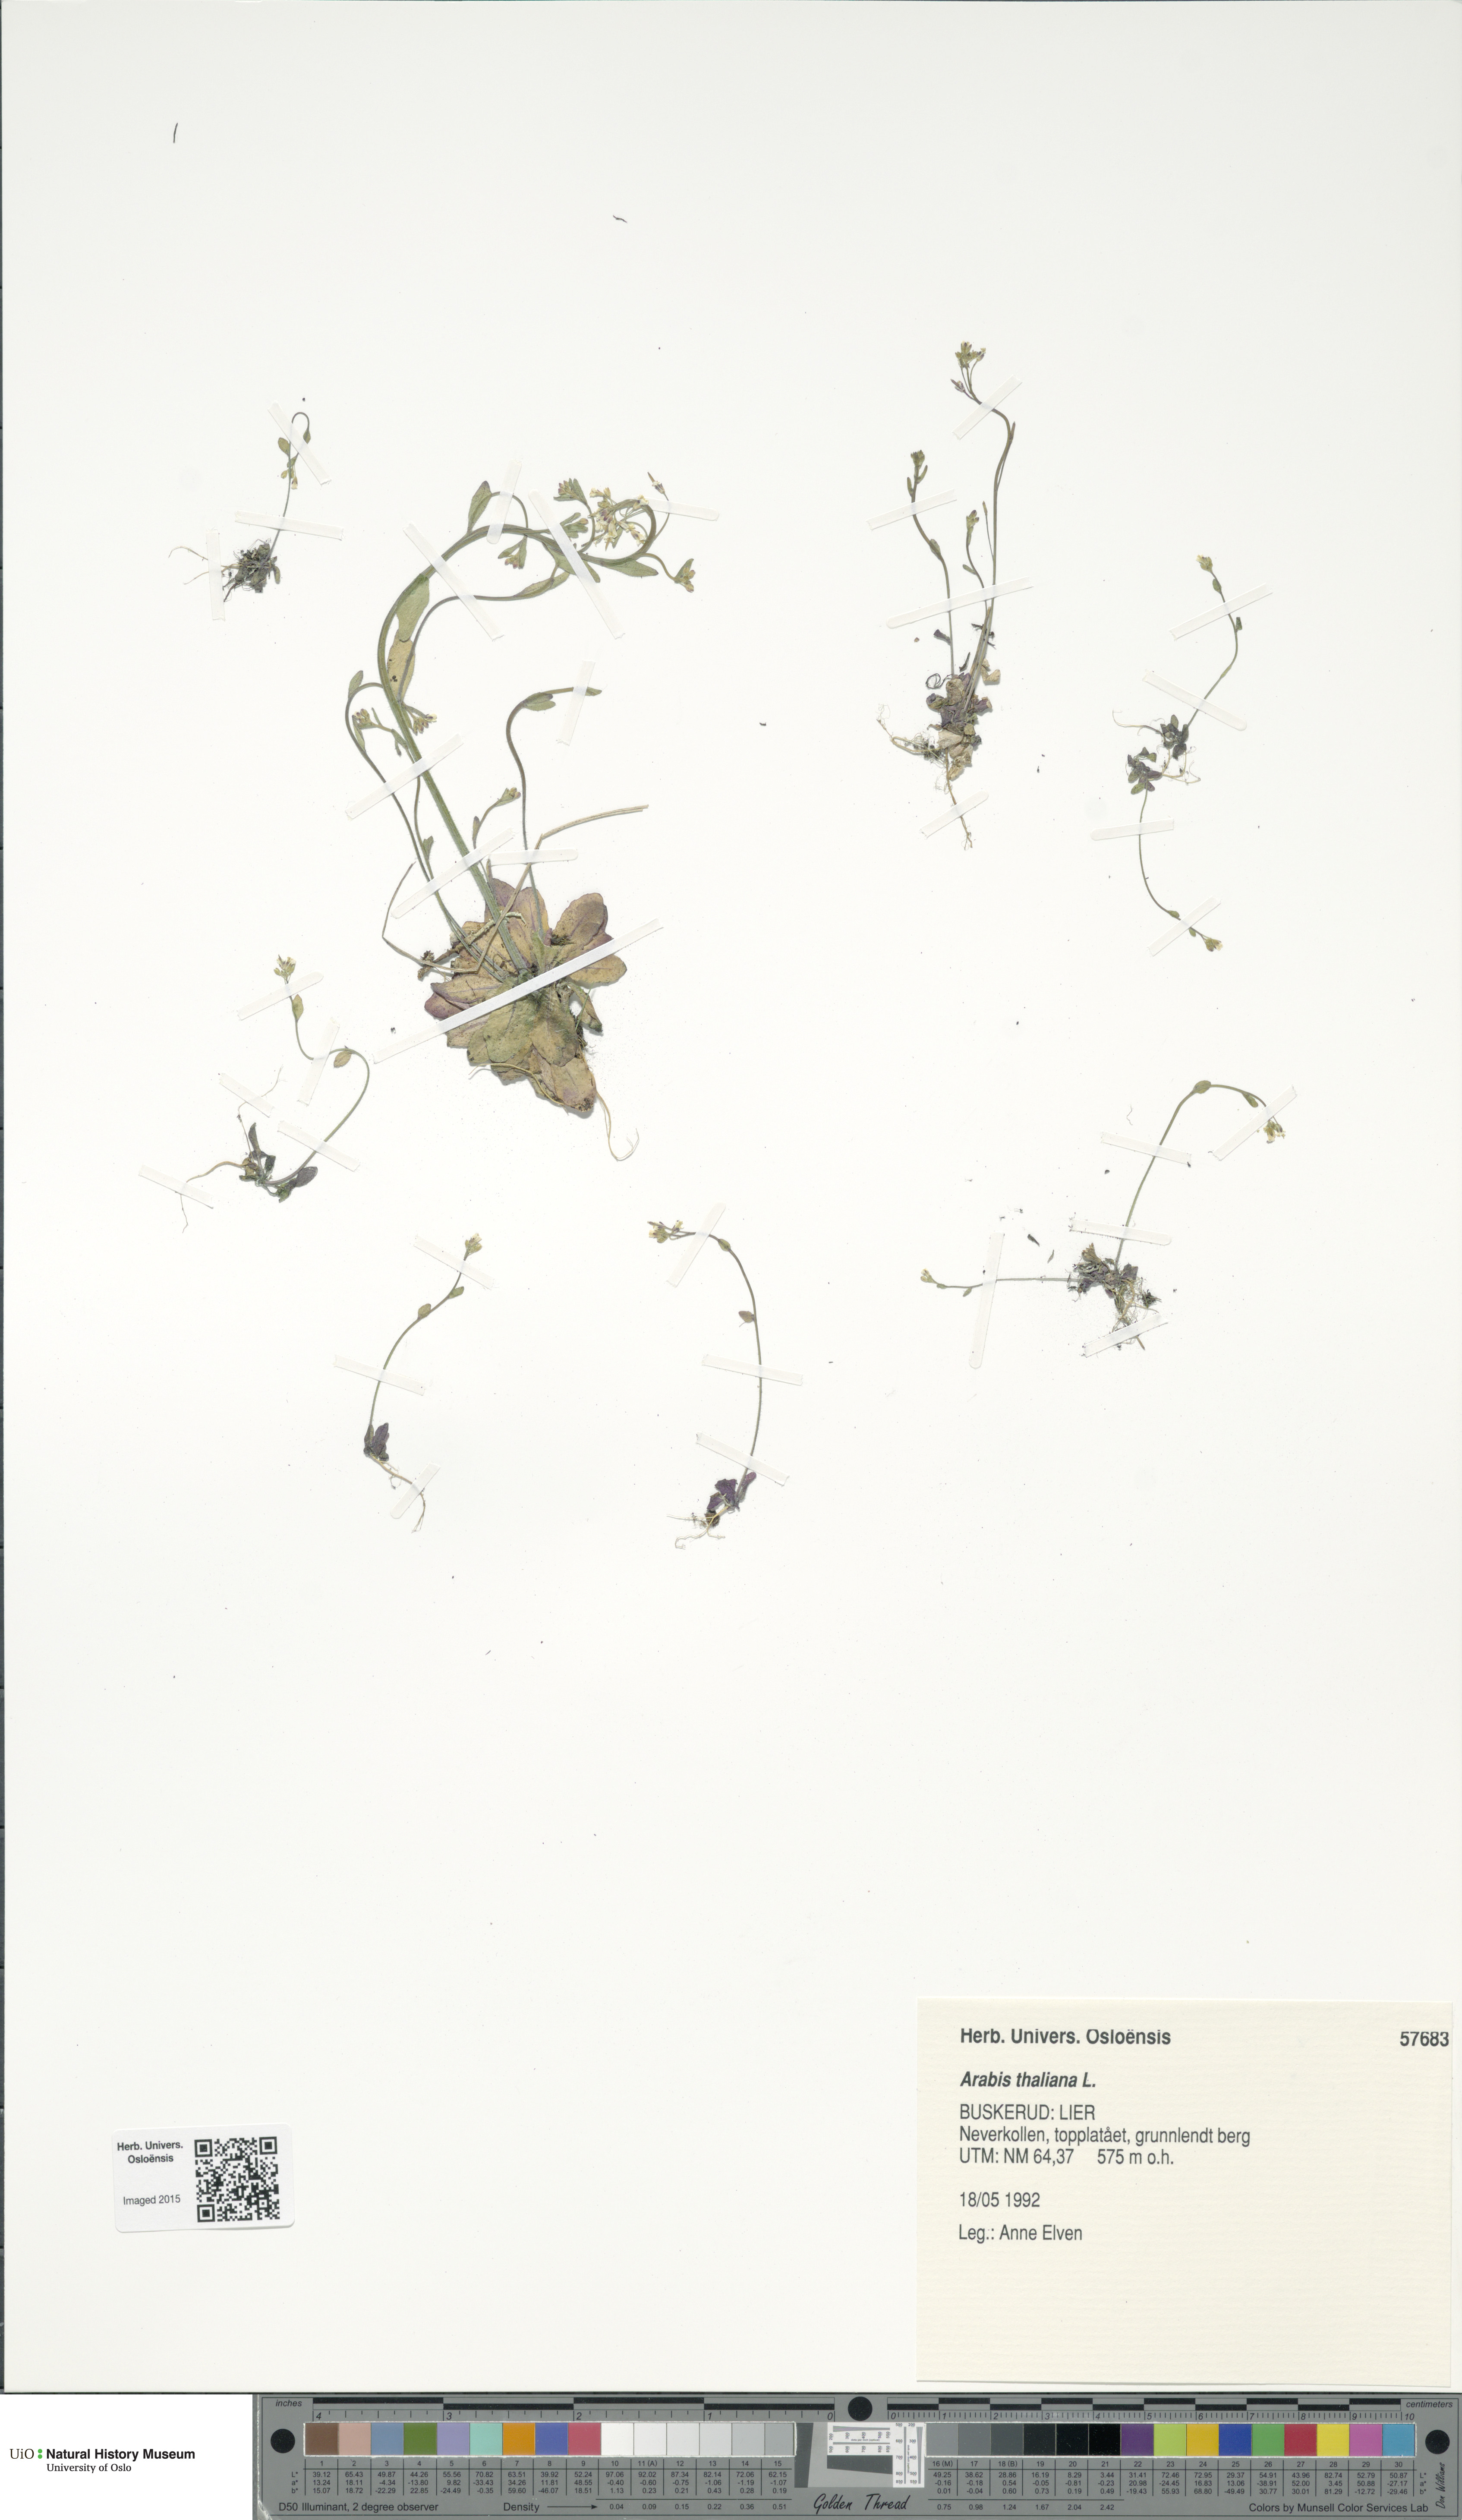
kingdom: Plantae
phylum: Tracheophyta
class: Magnoliopsida
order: Brassicales
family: Brassicaceae
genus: Arabidopsis
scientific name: Arabidopsis thaliana
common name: Thale cress
